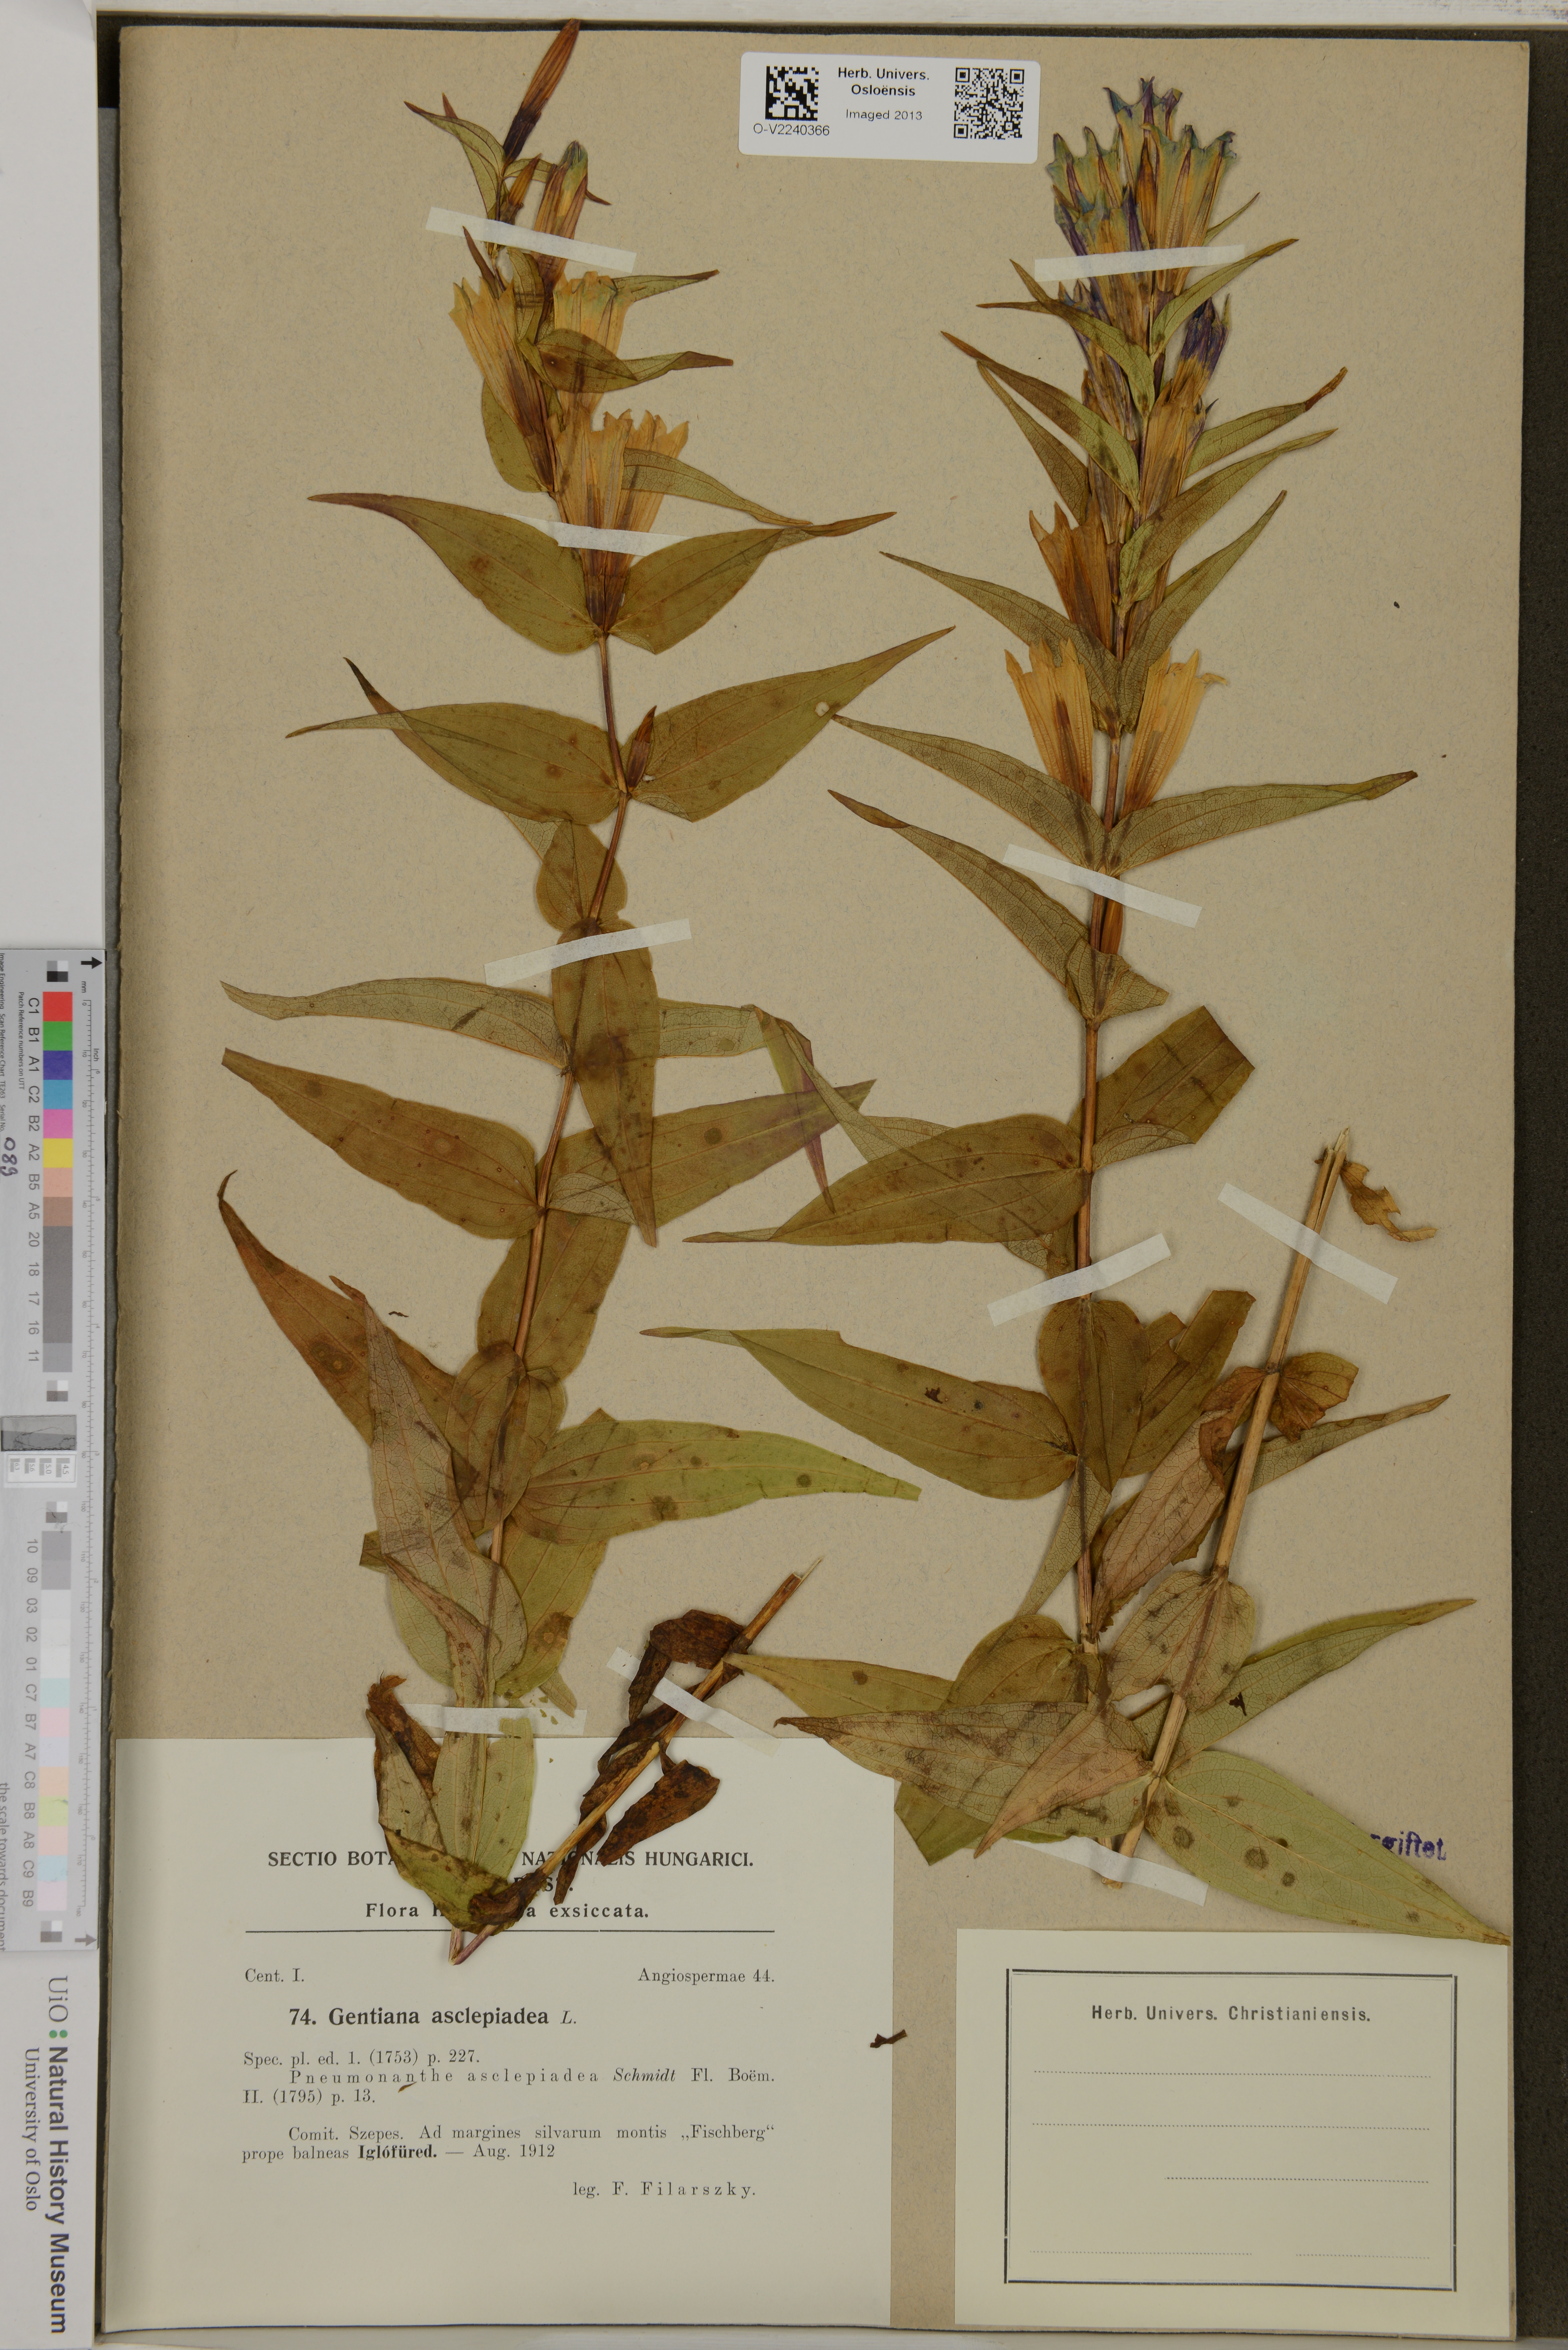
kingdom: Plantae
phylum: Tracheophyta
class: Magnoliopsida
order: Gentianales
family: Gentianaceae
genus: Gentiana
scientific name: Gentiana asclepiadea
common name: Willow gentian
